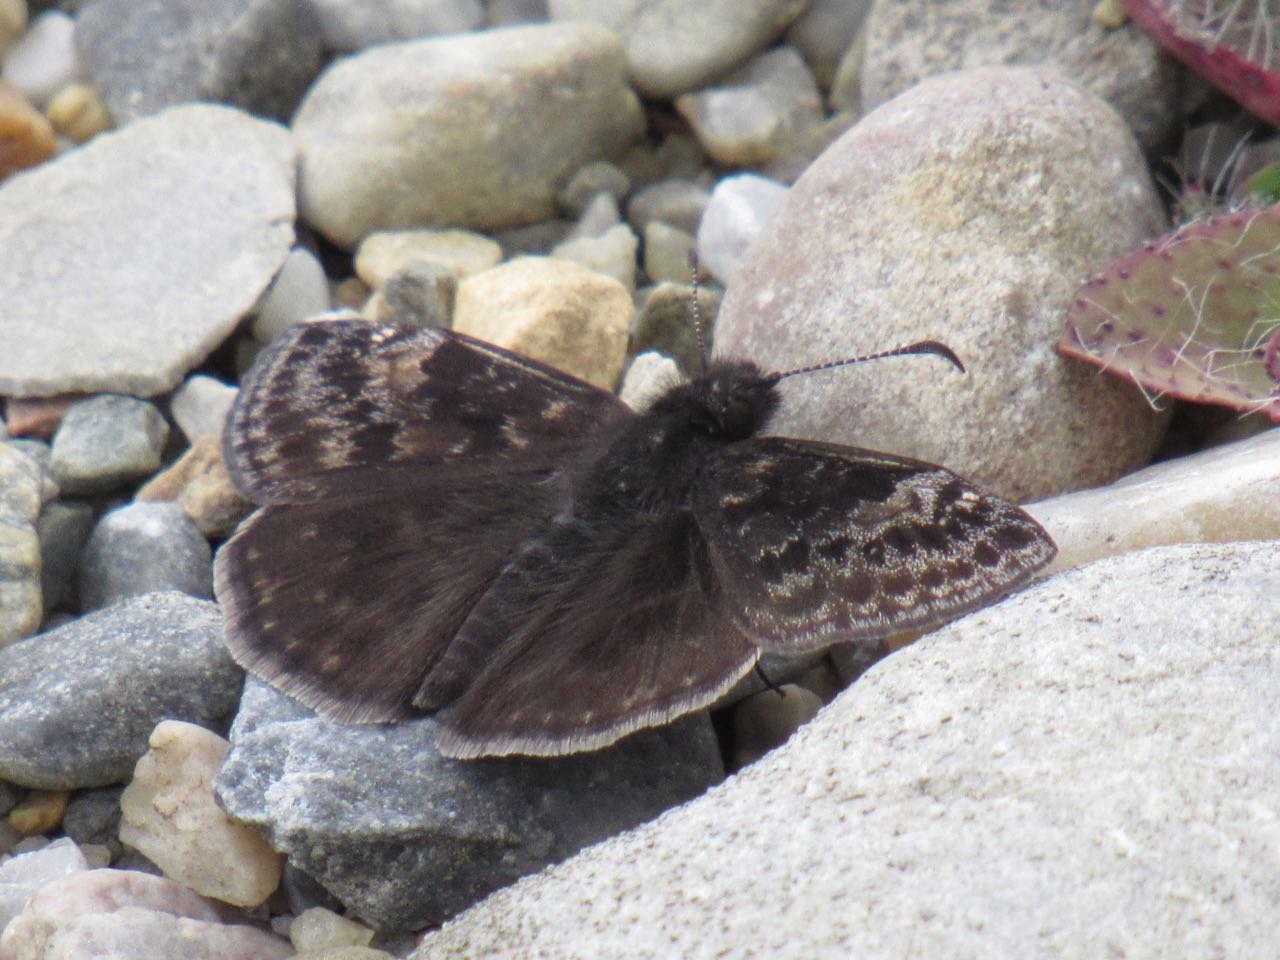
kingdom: Animalia
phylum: Arthropoda
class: Insecta
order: Lepidoptera
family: Hesperiidae
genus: Gesta
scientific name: Gesta
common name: Wild Indigo Duskywing
